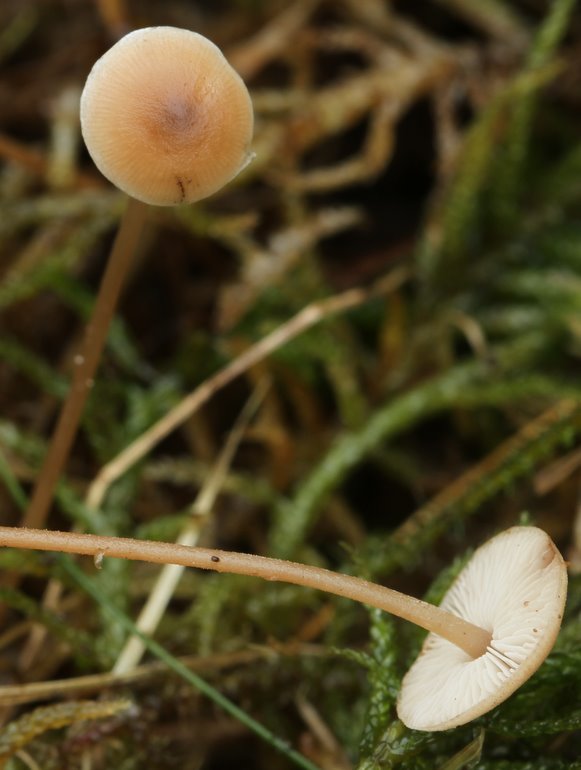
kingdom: Fungi
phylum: Basidiomycota
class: Agaricomycetes
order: Agaricales
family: Marasmiaceae
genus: Baeospora
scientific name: Baeospora myosura
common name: koglebruskhat
